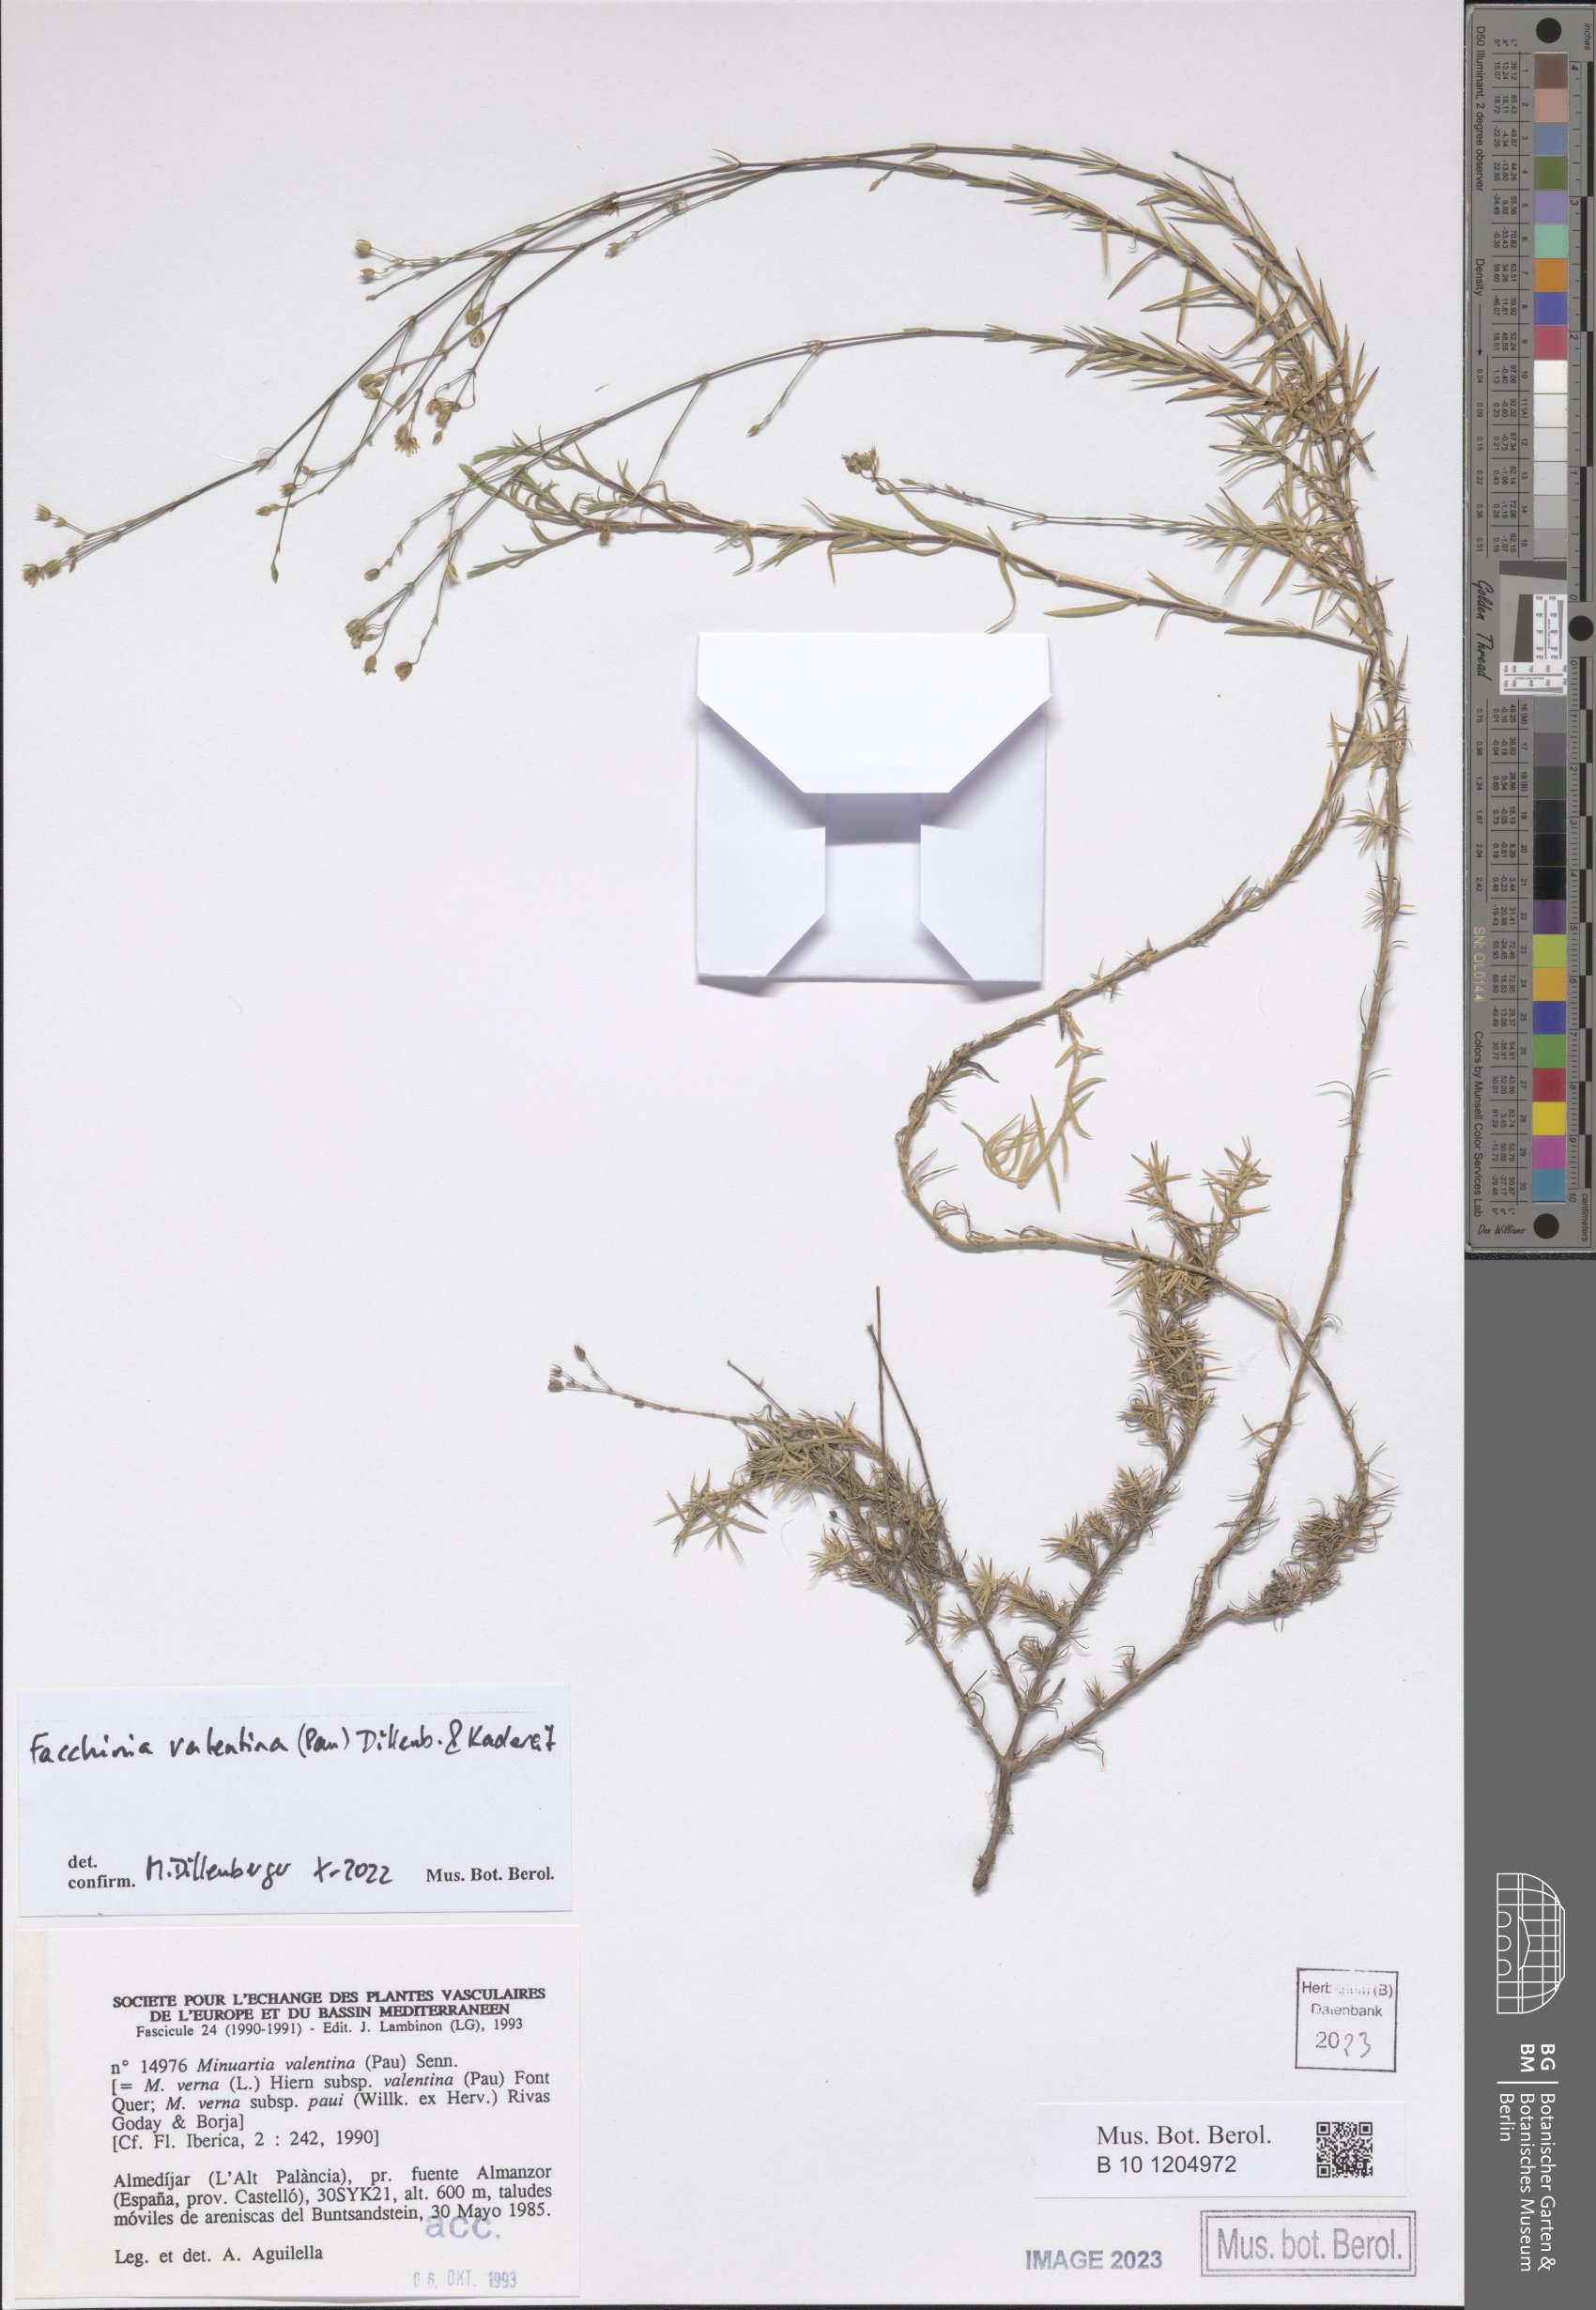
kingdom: Plantae
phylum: Tracheophyta
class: Magnoliopsida
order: Caryophyllales
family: Caryophyllaceae
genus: Facchinia
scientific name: Facchinia valentina
